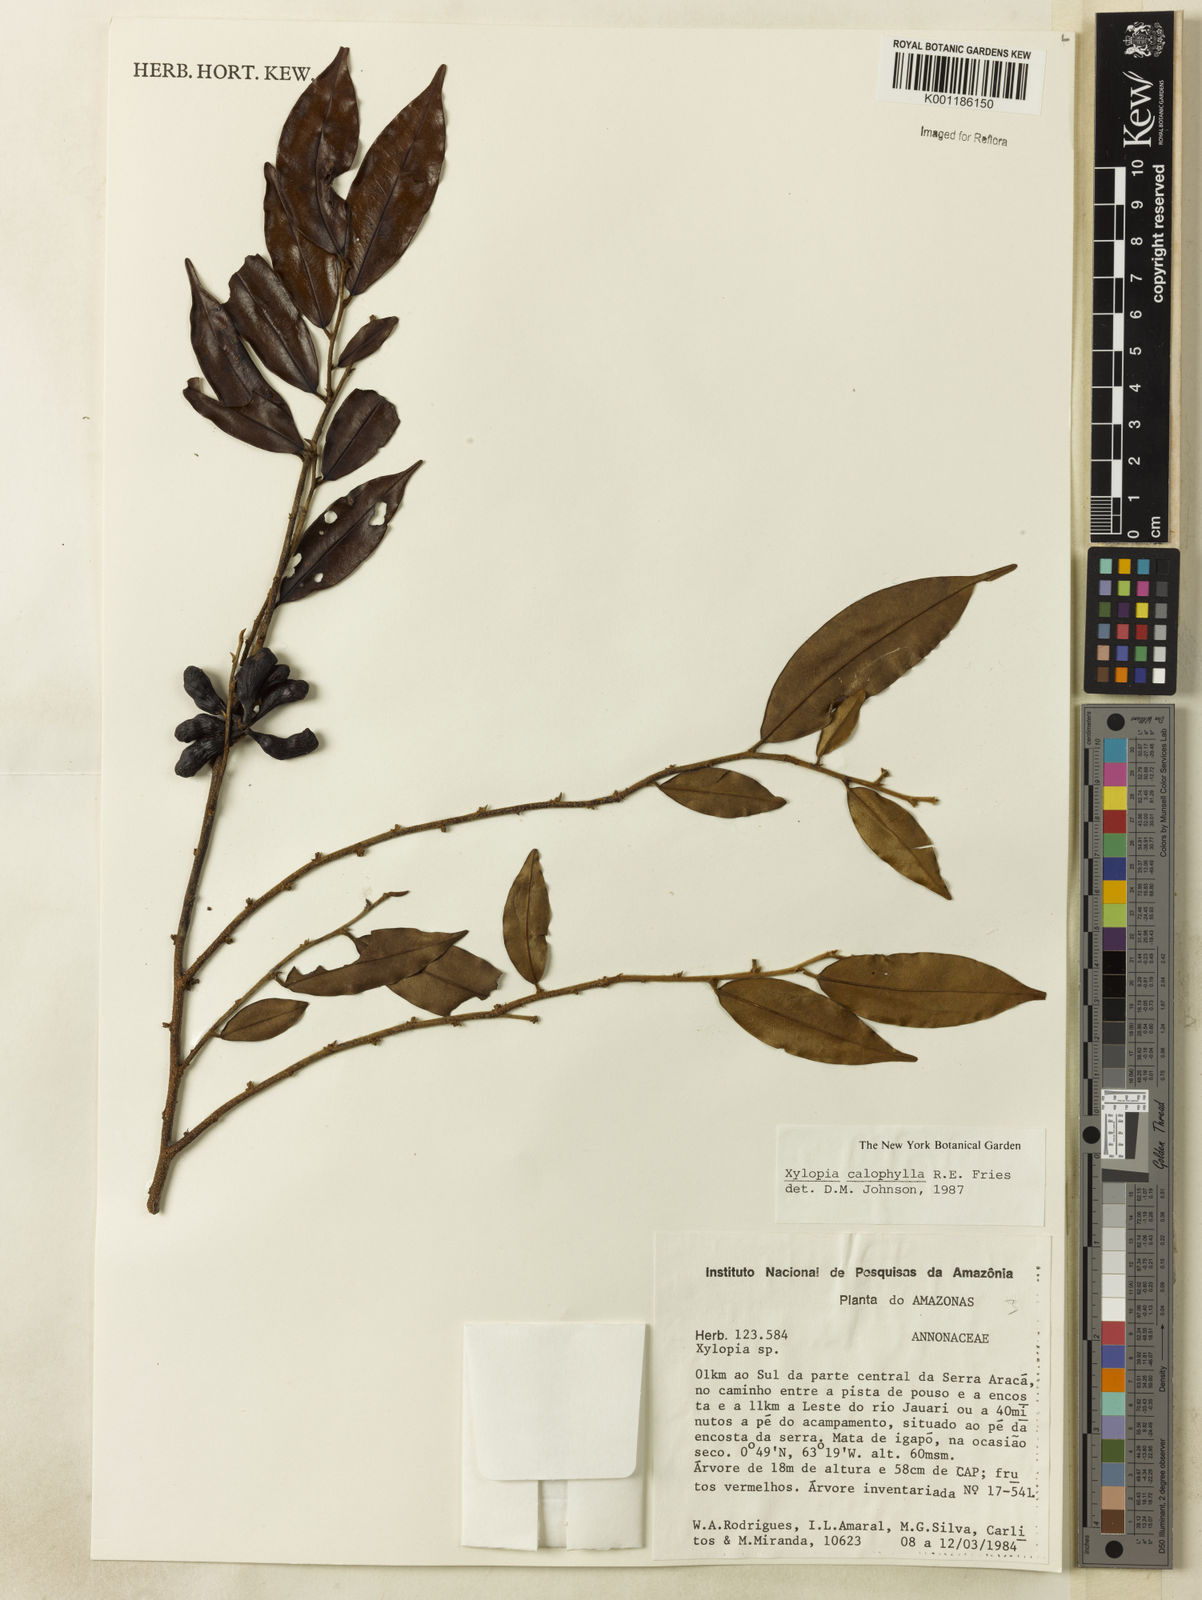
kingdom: Plantae
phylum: Tracheophyta
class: Magnoliopsida
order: Magnoliales
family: Annonaceae
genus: Xylopia
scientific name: Xylopia calophylla
